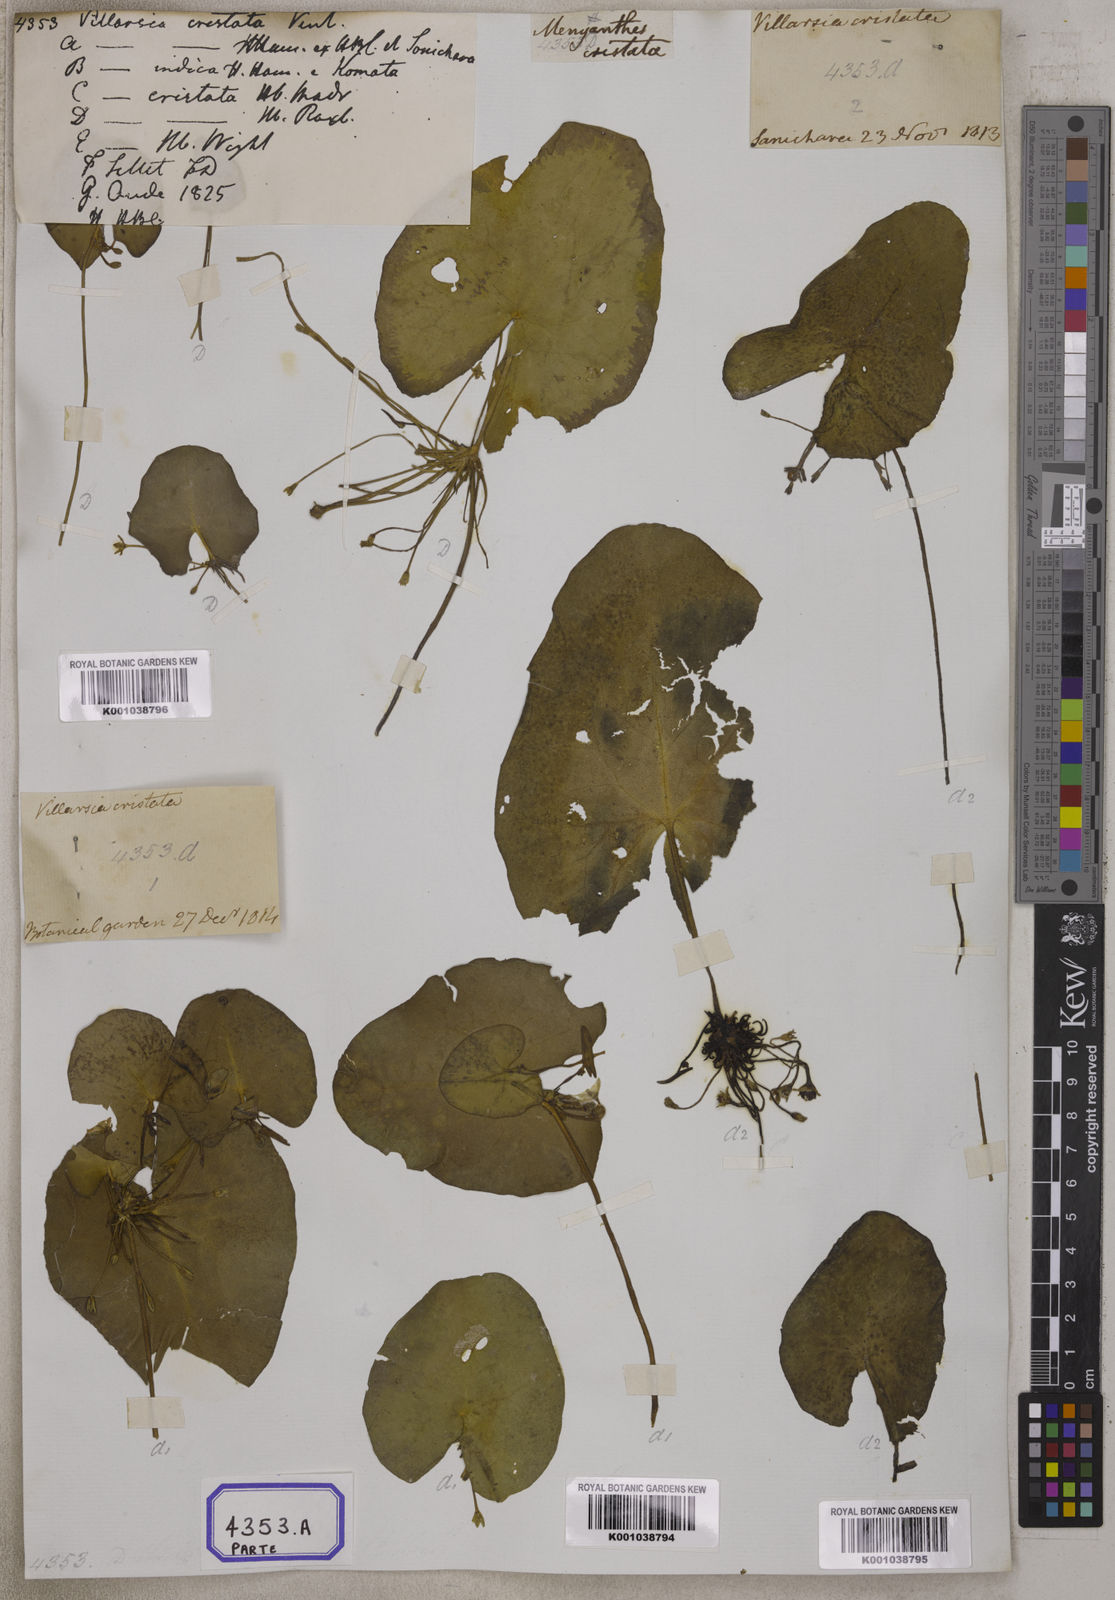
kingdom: Plantae
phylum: Tracheophyta
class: Magnoliopsida
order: Asterales
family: Menyanthaceae
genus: Nymphoides
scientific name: Nymphoides hydrophylla
